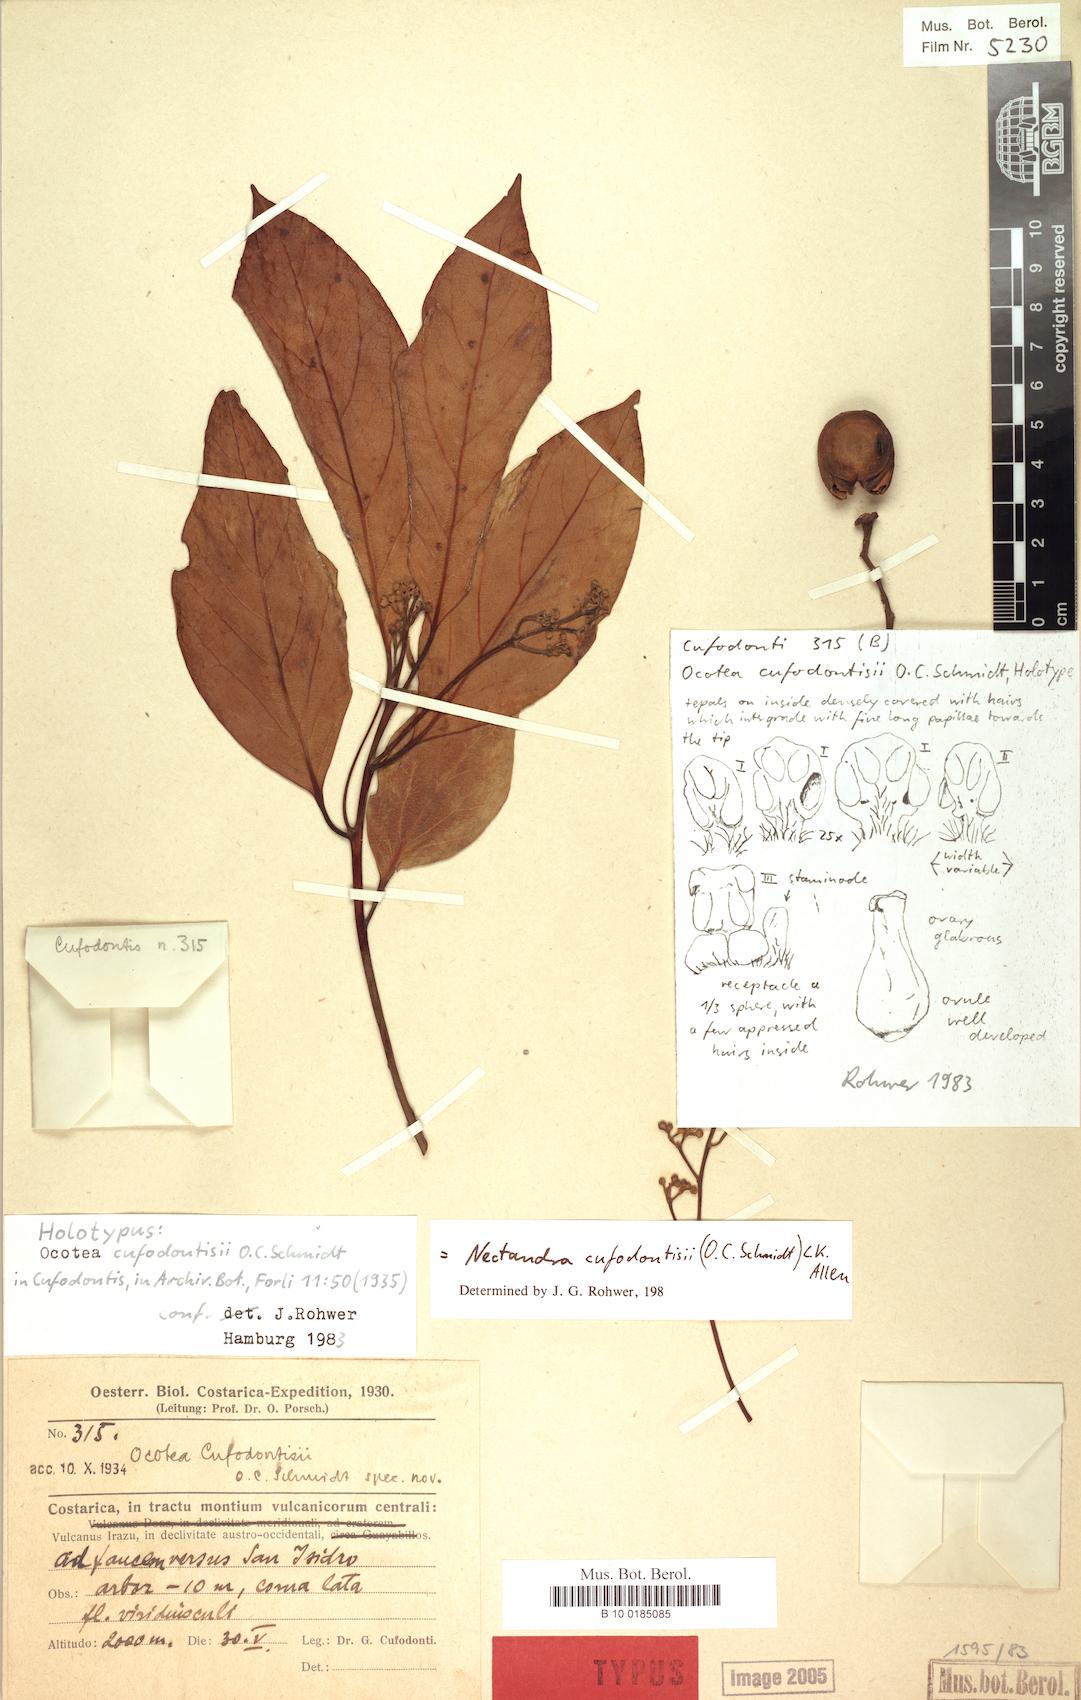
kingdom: Plantae
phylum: Tracheophyta
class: Magnoliopsida
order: Laurales
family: Lauraceae
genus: Damburneya
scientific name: Damburneya cufodontisii
